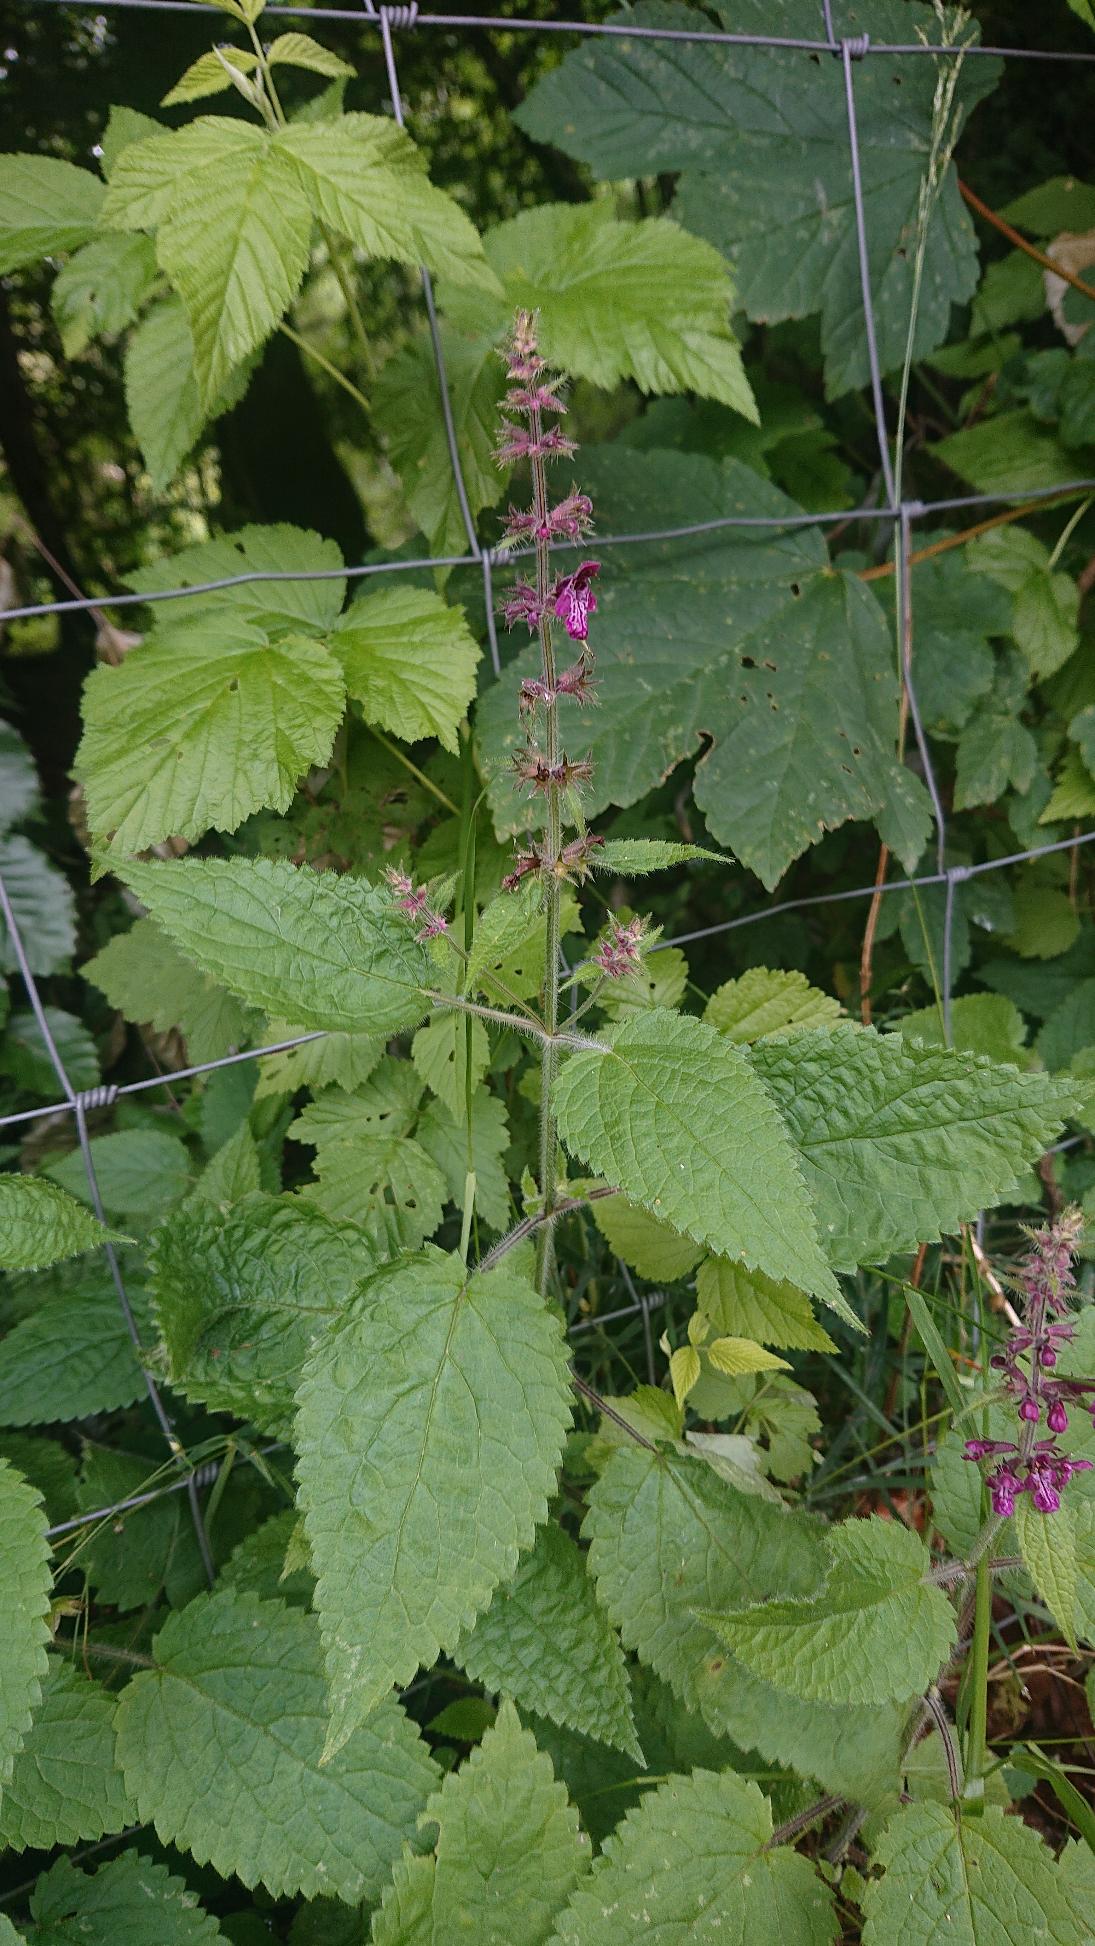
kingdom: Plantae
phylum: Tracheophyta
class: Magnoliopsida
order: Lamiales
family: Lamiaceae
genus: Stachys
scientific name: Stachys sylvatica
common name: Skov-galtetand
